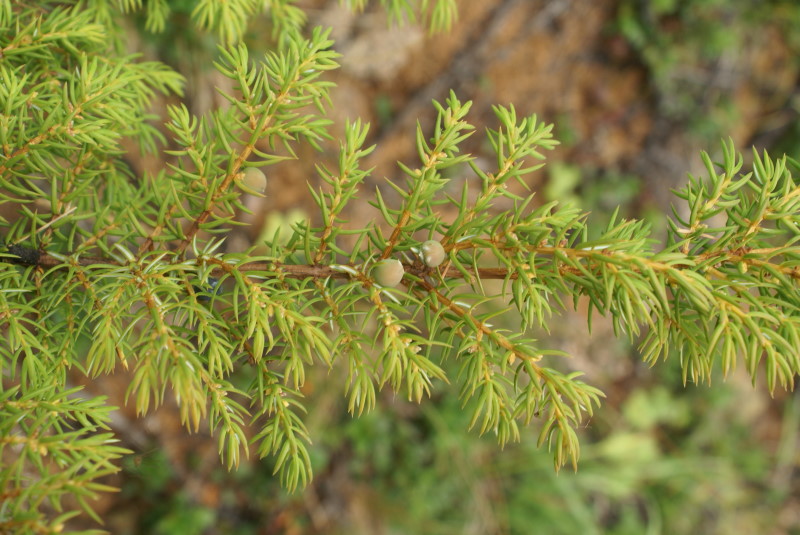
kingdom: Plantae
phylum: Tracheophyta
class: Pinopsida
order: Pinales
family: Cupressaceae
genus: Juniperus
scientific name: Juniperus communis
